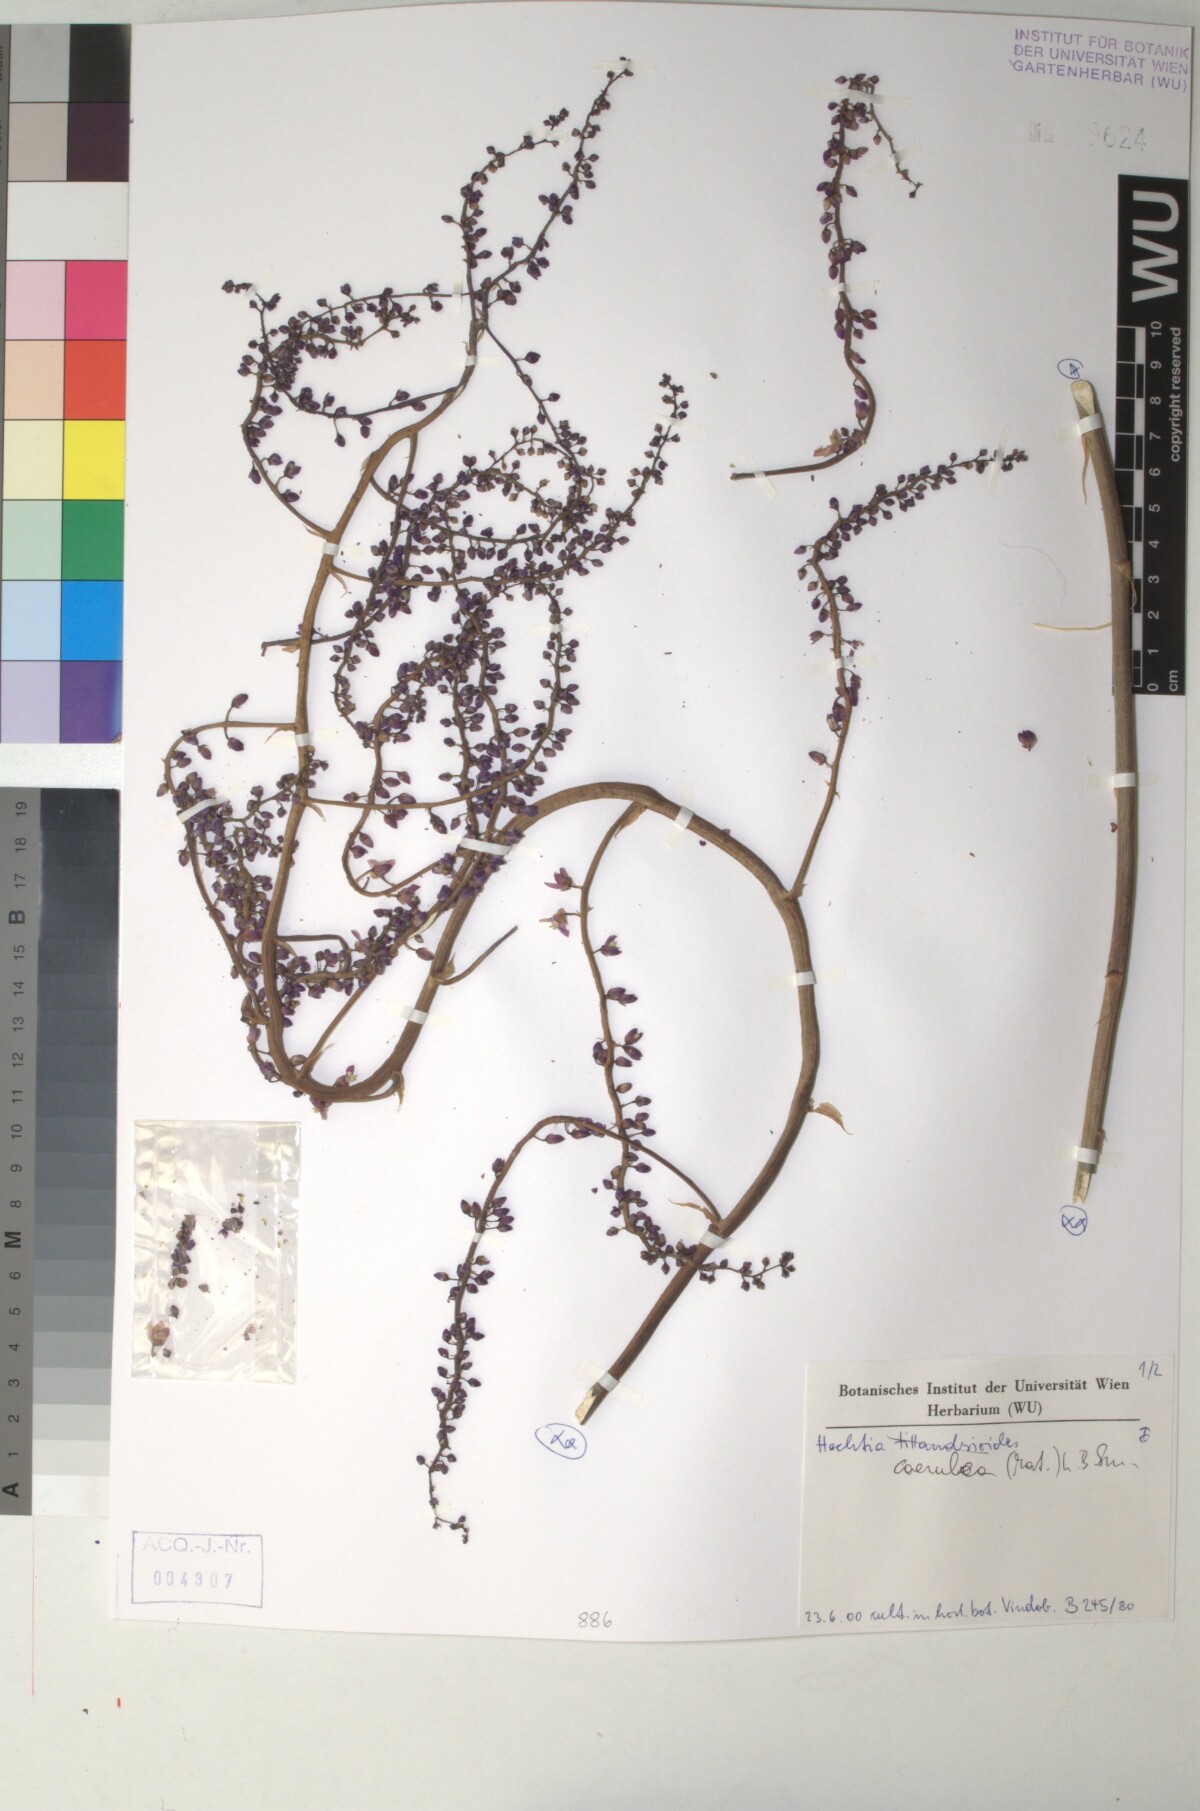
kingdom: Plantae
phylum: Tracheophyta
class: Liliopsida
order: Poales
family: Bromeliaceae
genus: Hechtia
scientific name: Hechtia
